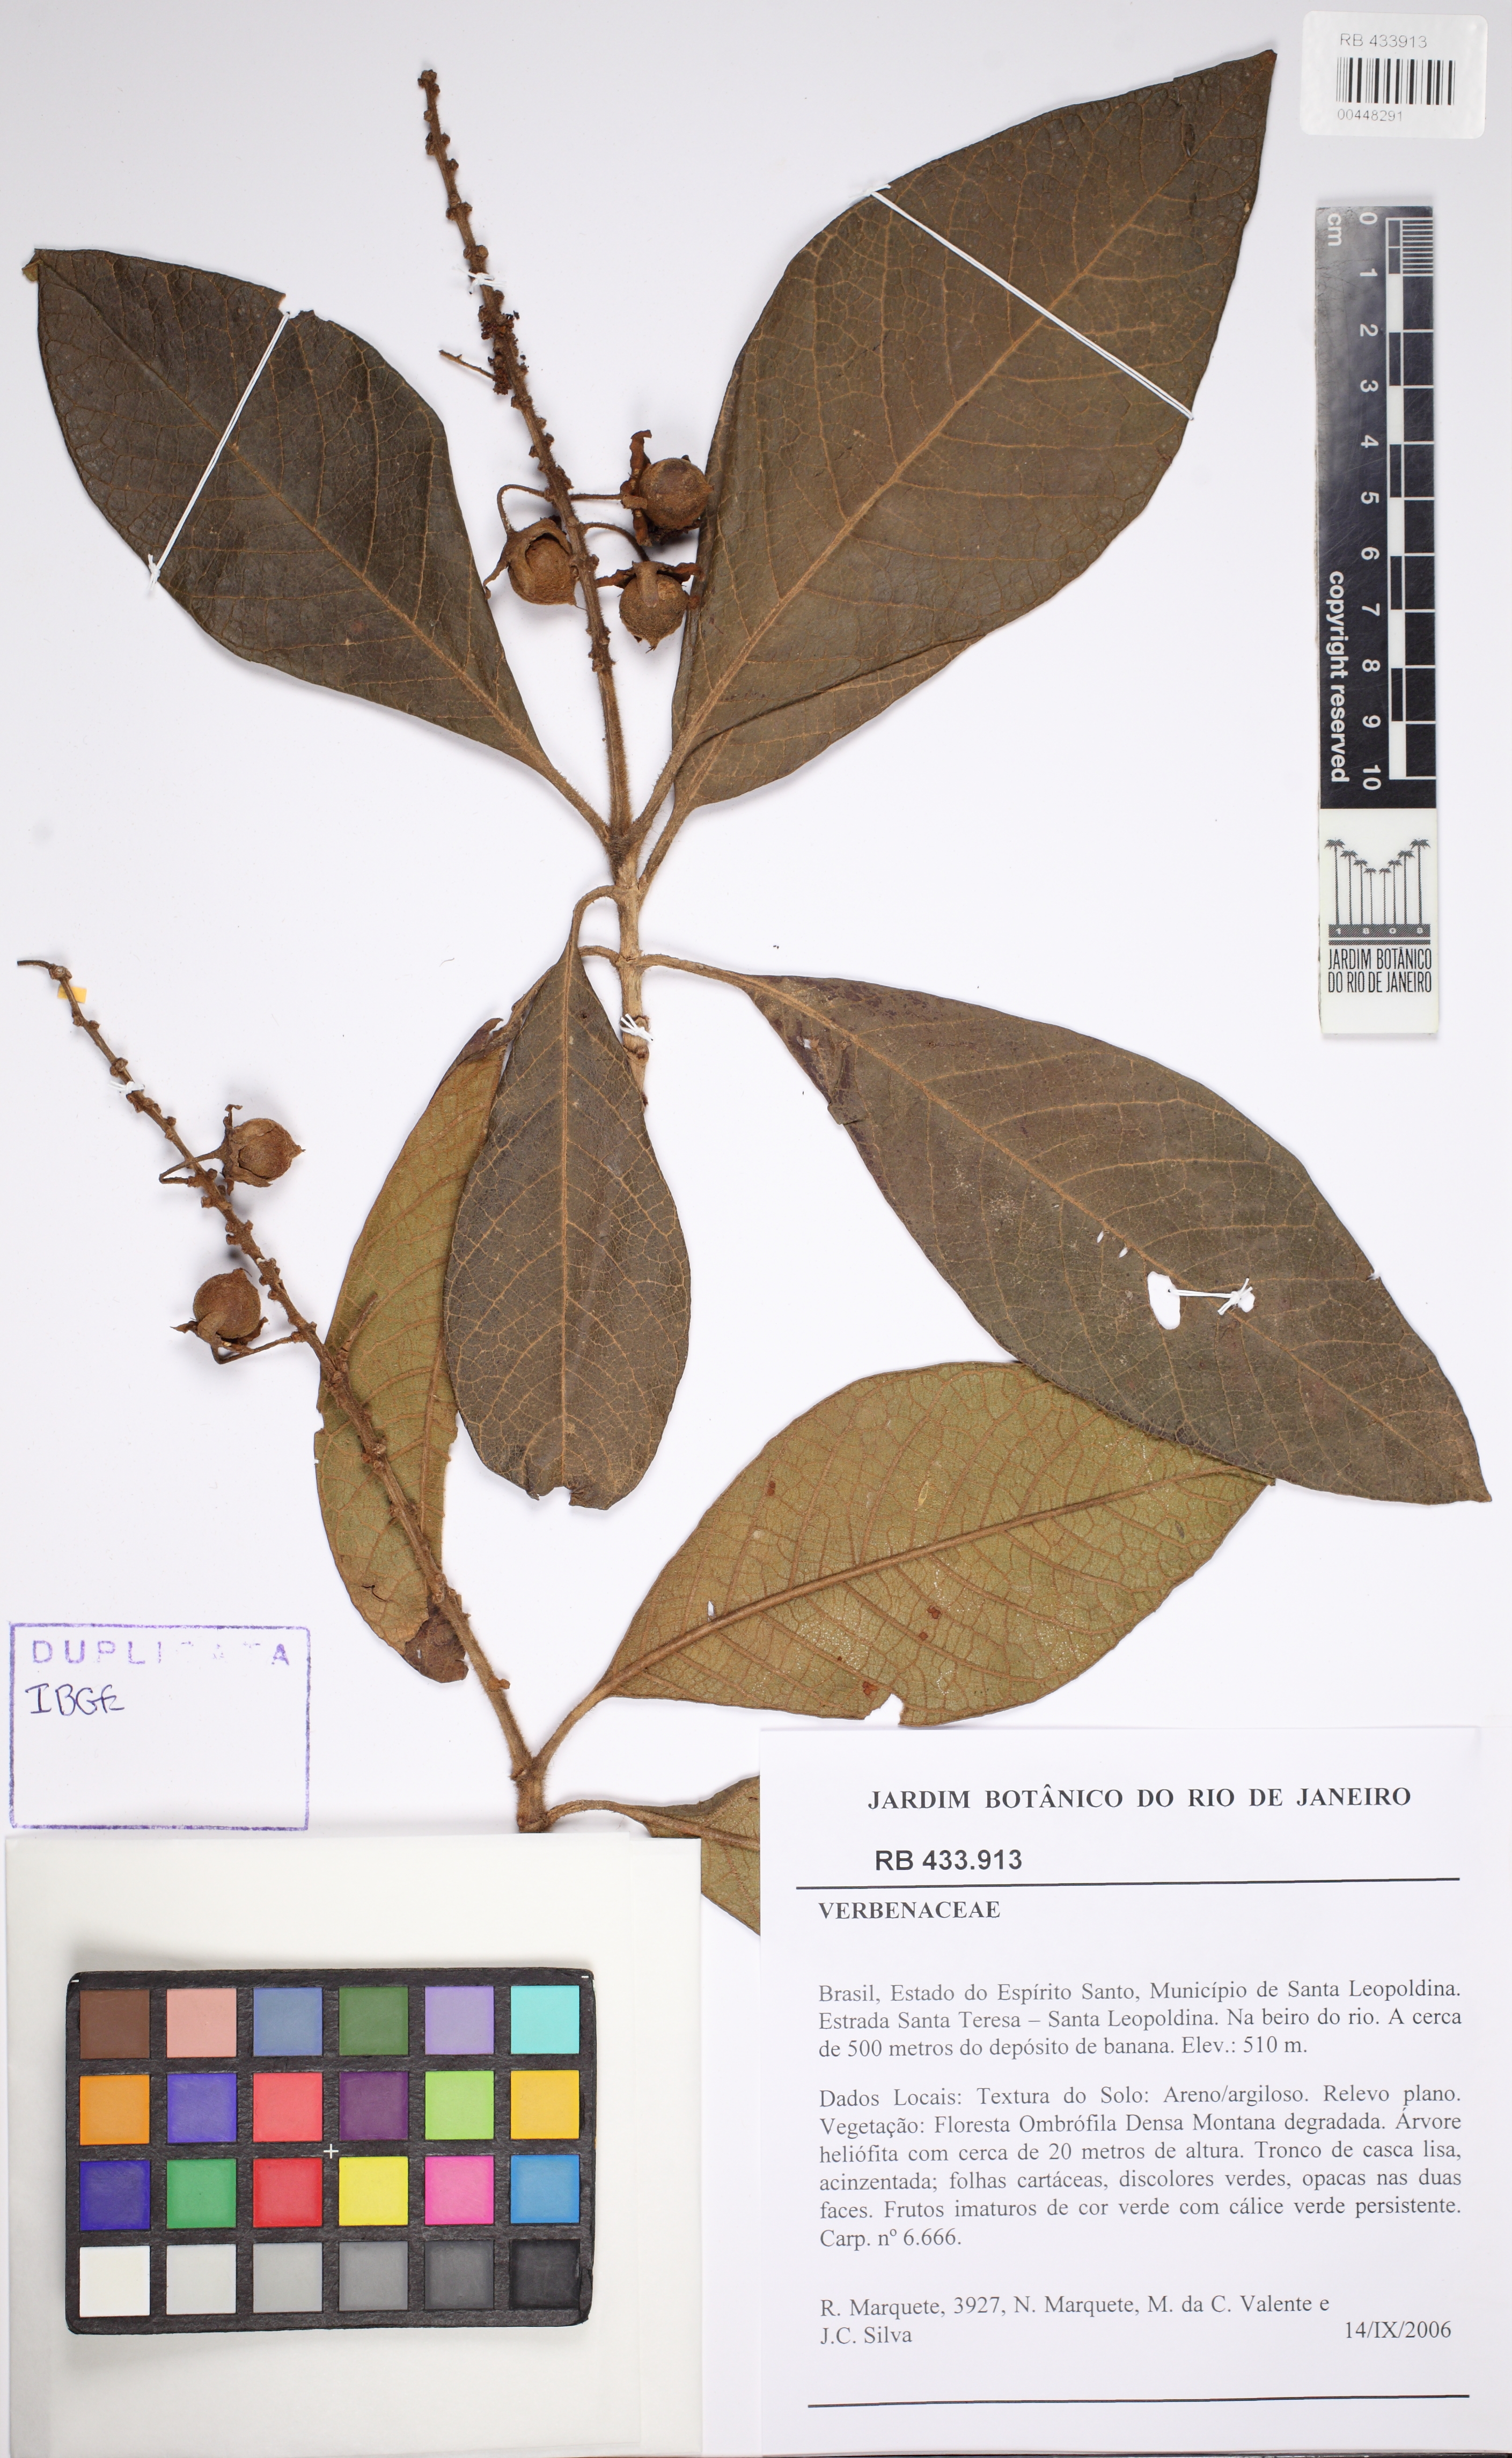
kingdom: Plantae
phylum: Tracheophyta
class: Magnoliopsida
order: Lamiales
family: Verbenaceae
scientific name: Verbenaceae
